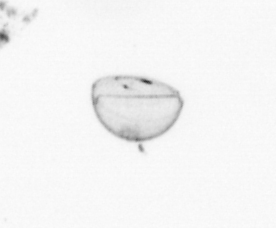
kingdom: Chromista
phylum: Ochrophyta
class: Bacillariophyceae
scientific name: Bacillariophyceae
